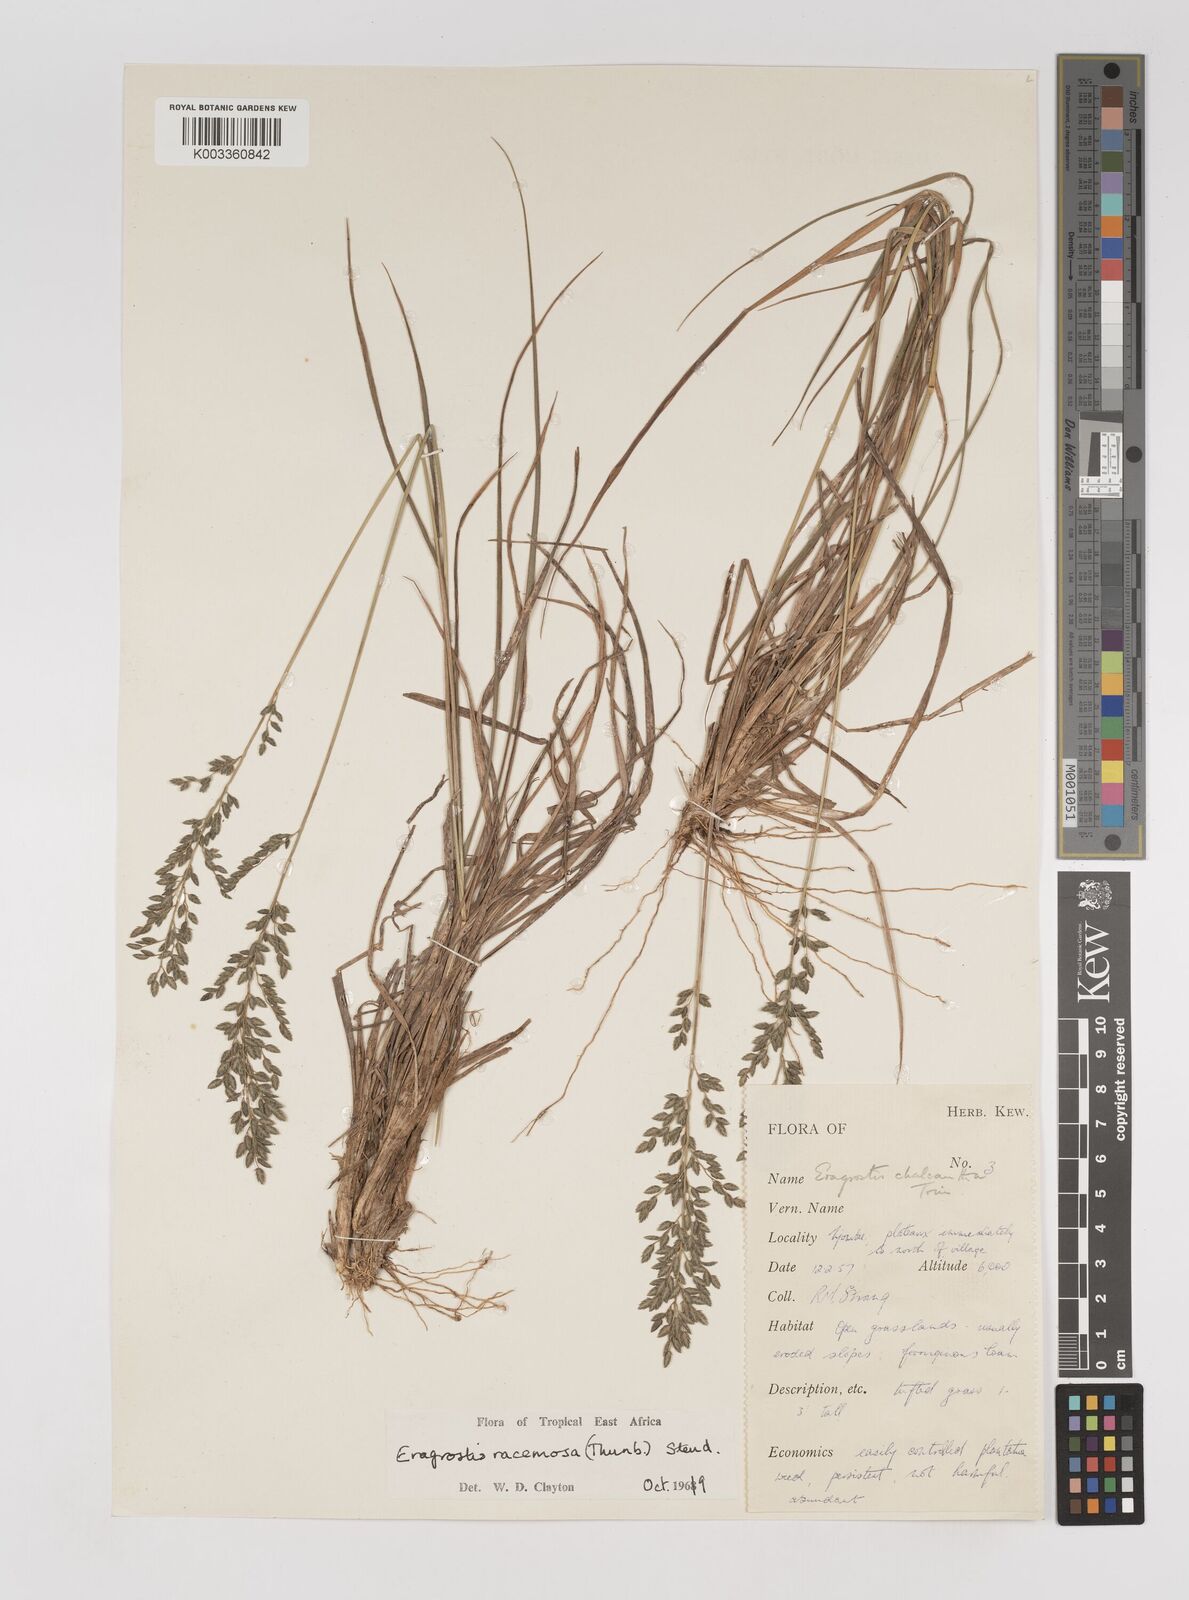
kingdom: Plantae
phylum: Tracheophyta
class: Liliopsida
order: Poales
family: Poaceae
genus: Eragrostis
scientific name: Eragrostis racemosa
